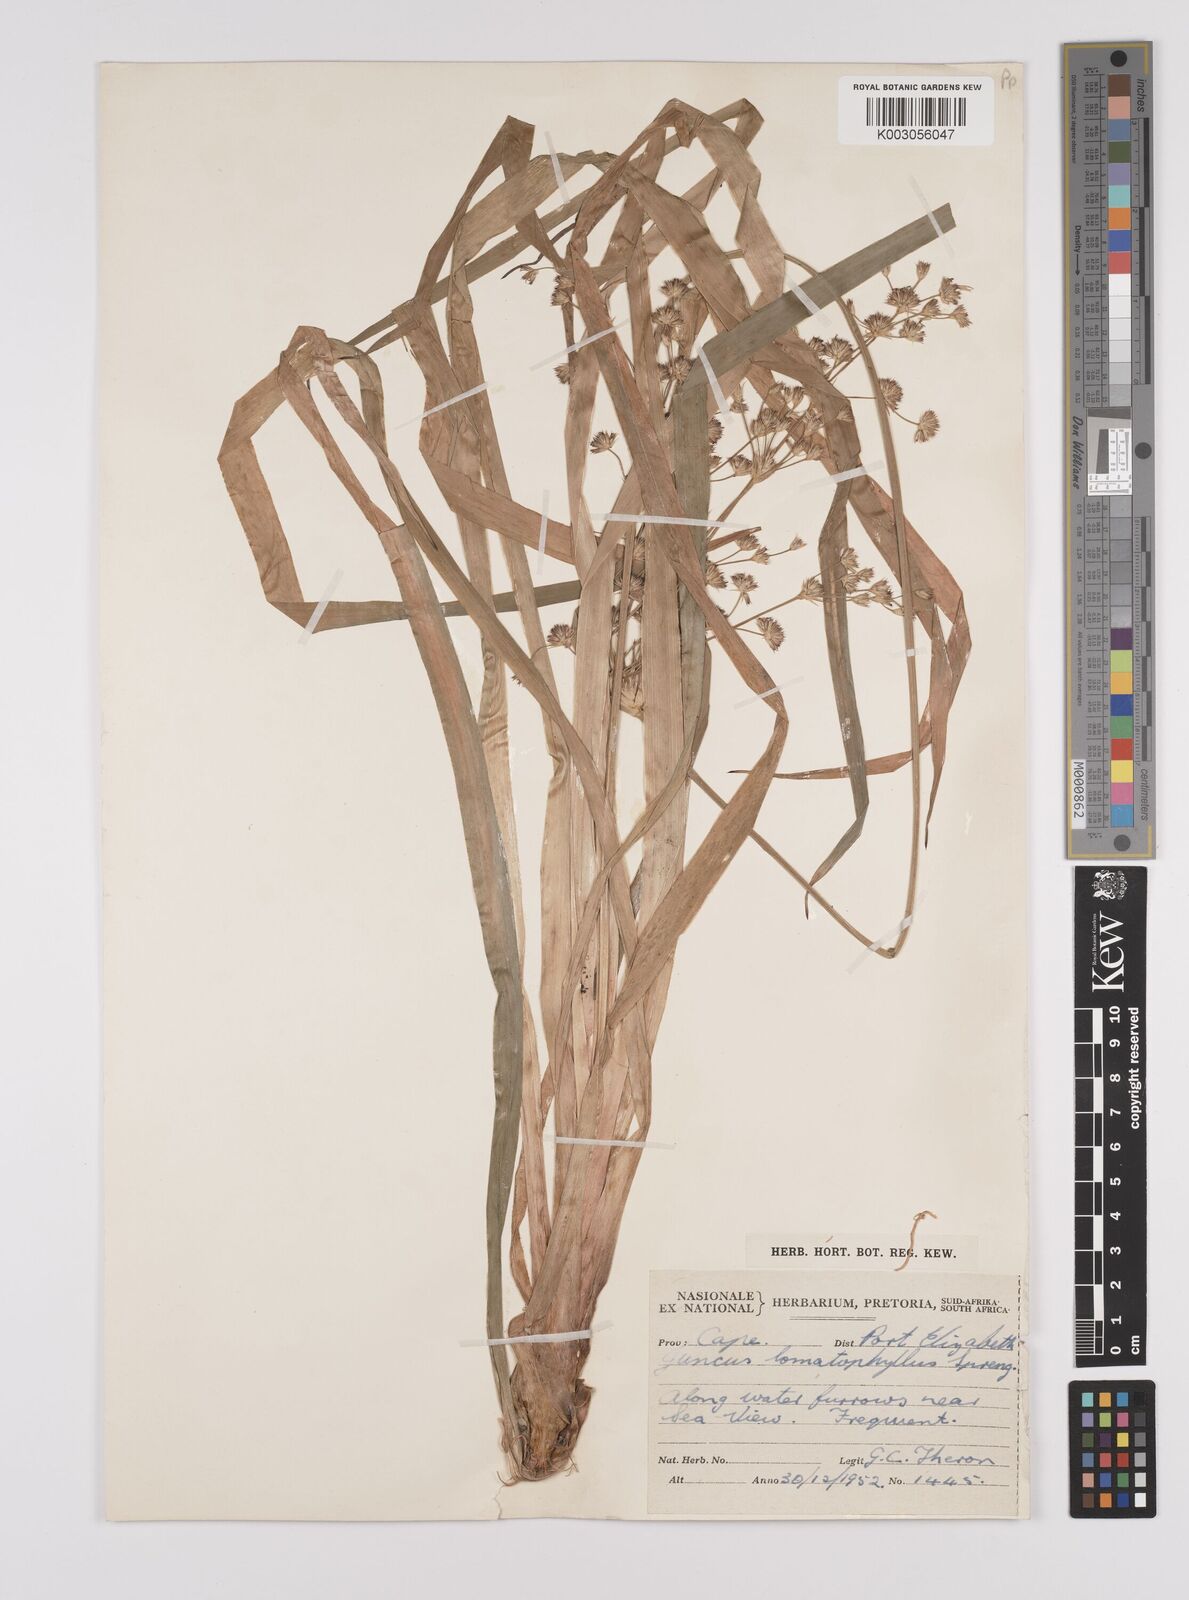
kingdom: Plantae
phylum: Tracheophyta
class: Liliopsida
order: Poales
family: Juncaceae
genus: Juncus
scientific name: Juncus lomatophyllus
